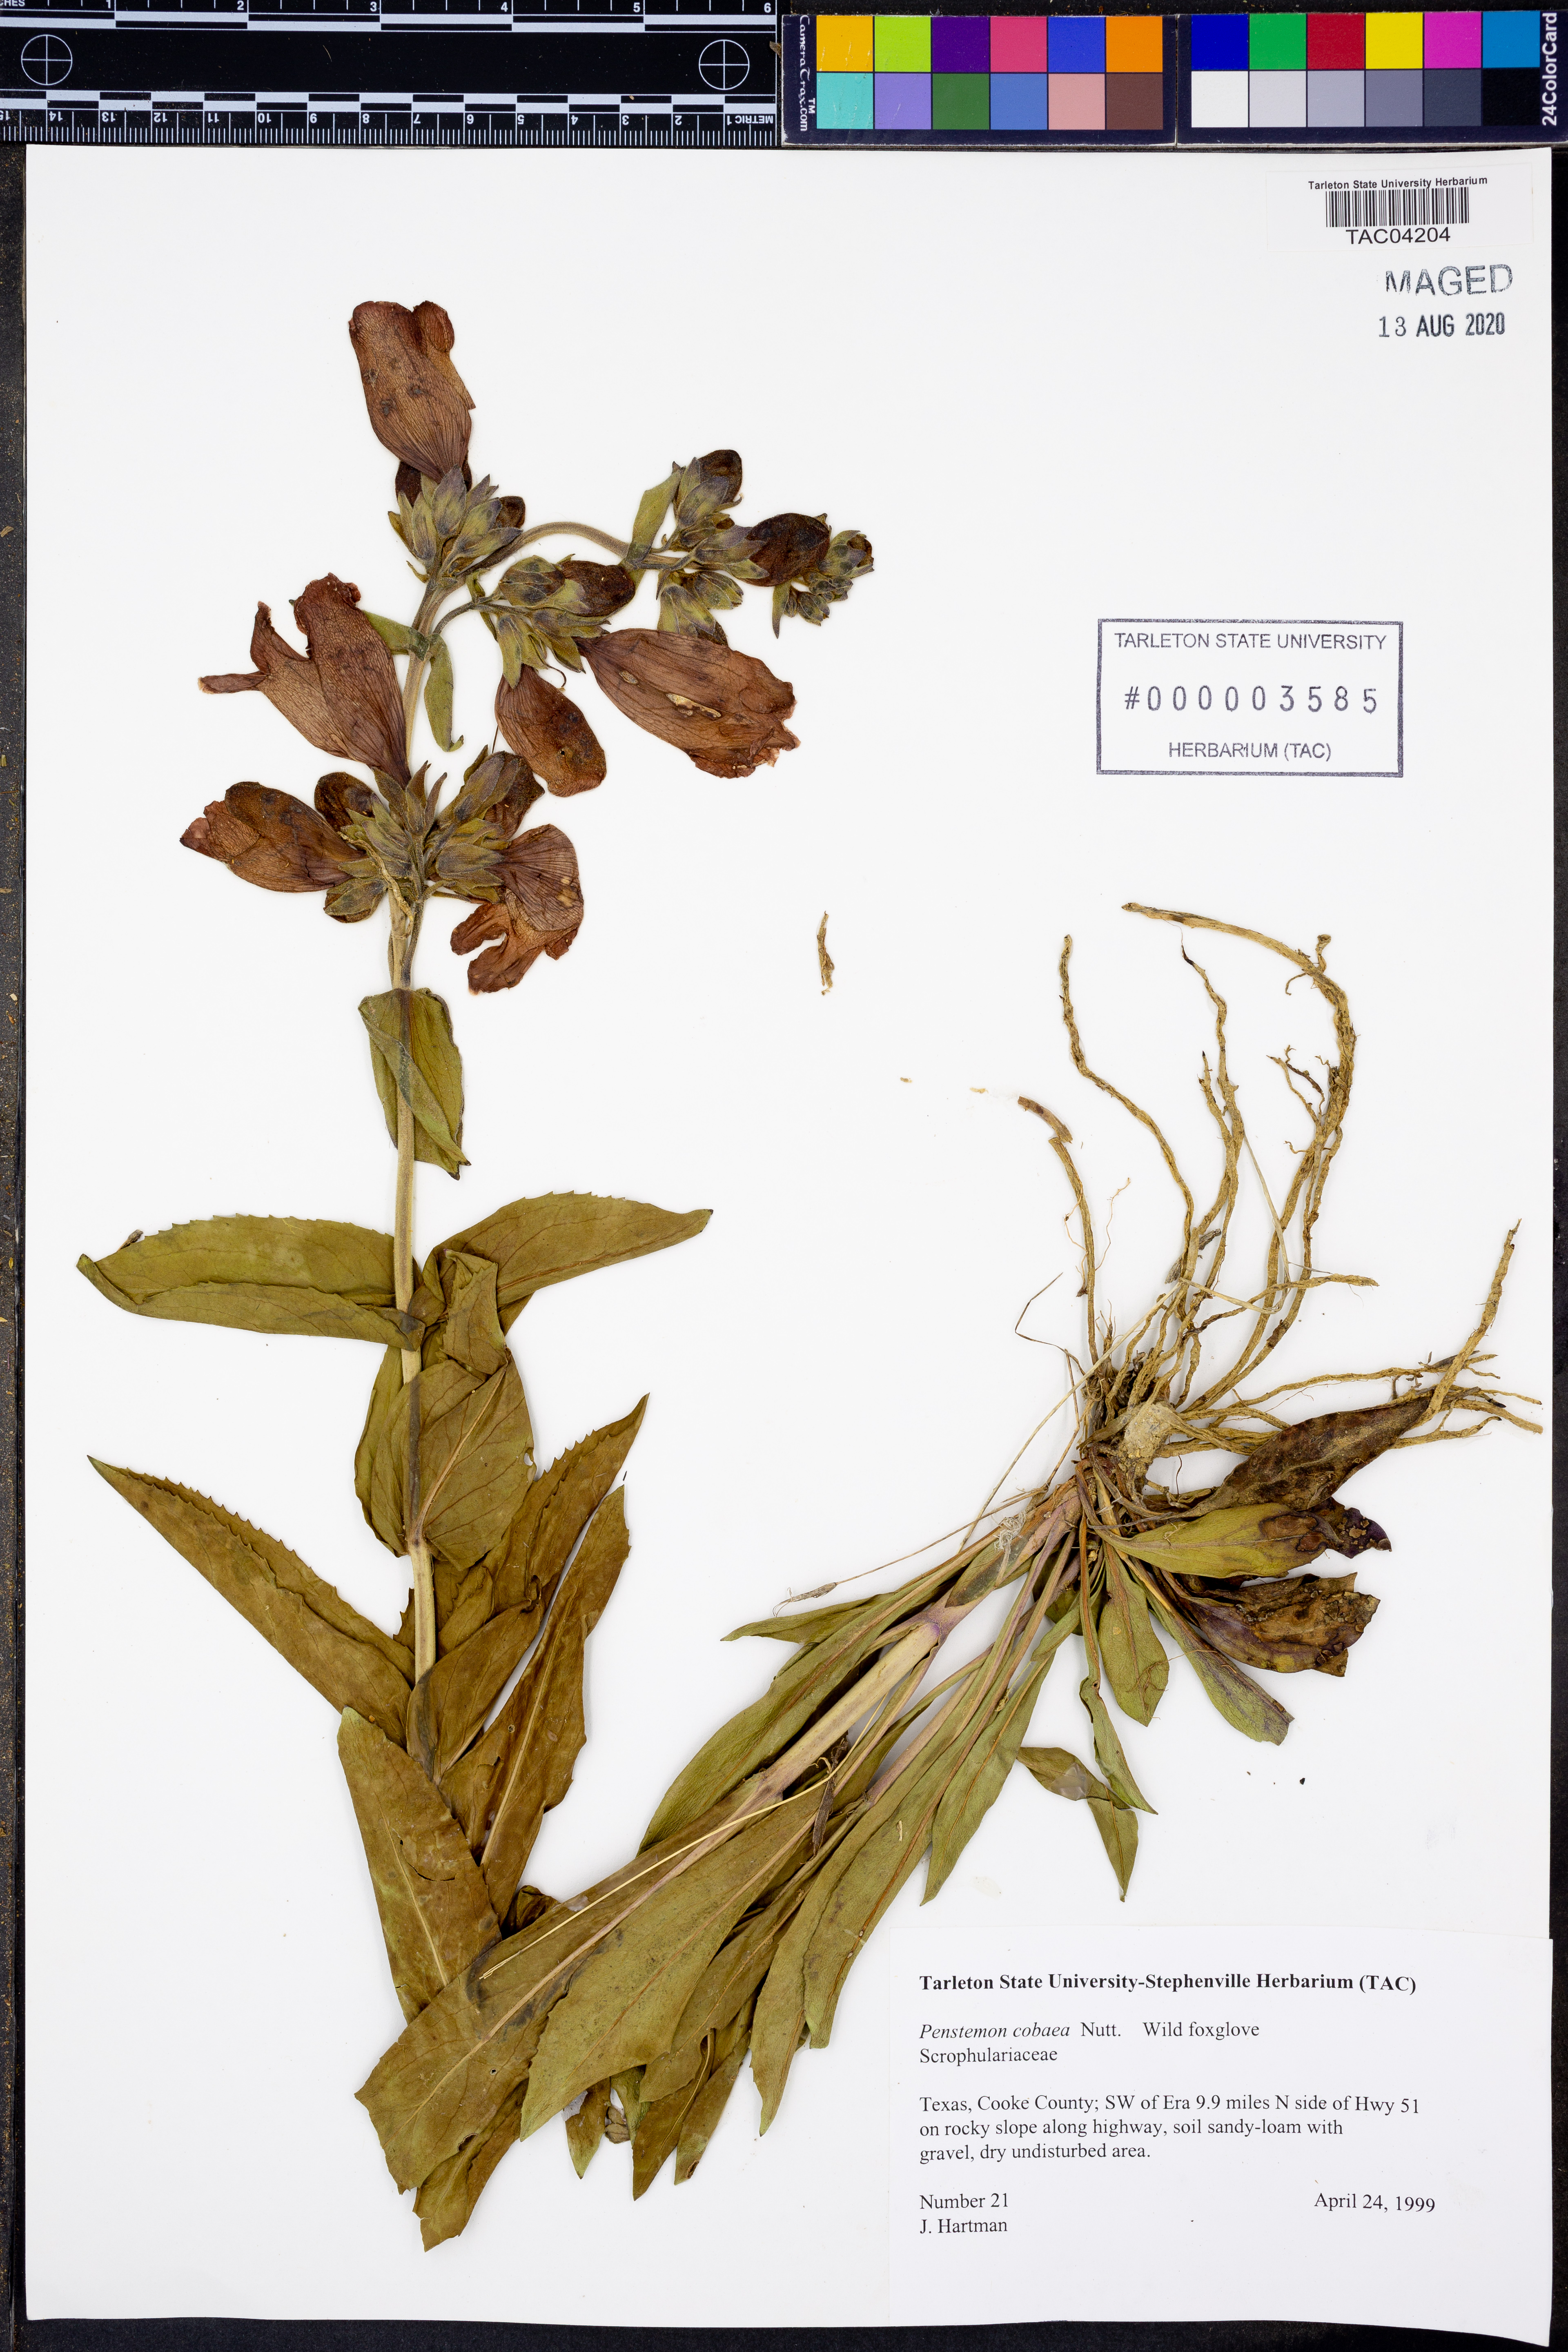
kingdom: Plantae
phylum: Tracheophyta
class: Magnoliopsida
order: Lamiales
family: Plantaginaceae
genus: Penstemon
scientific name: Penstemon cobaea
